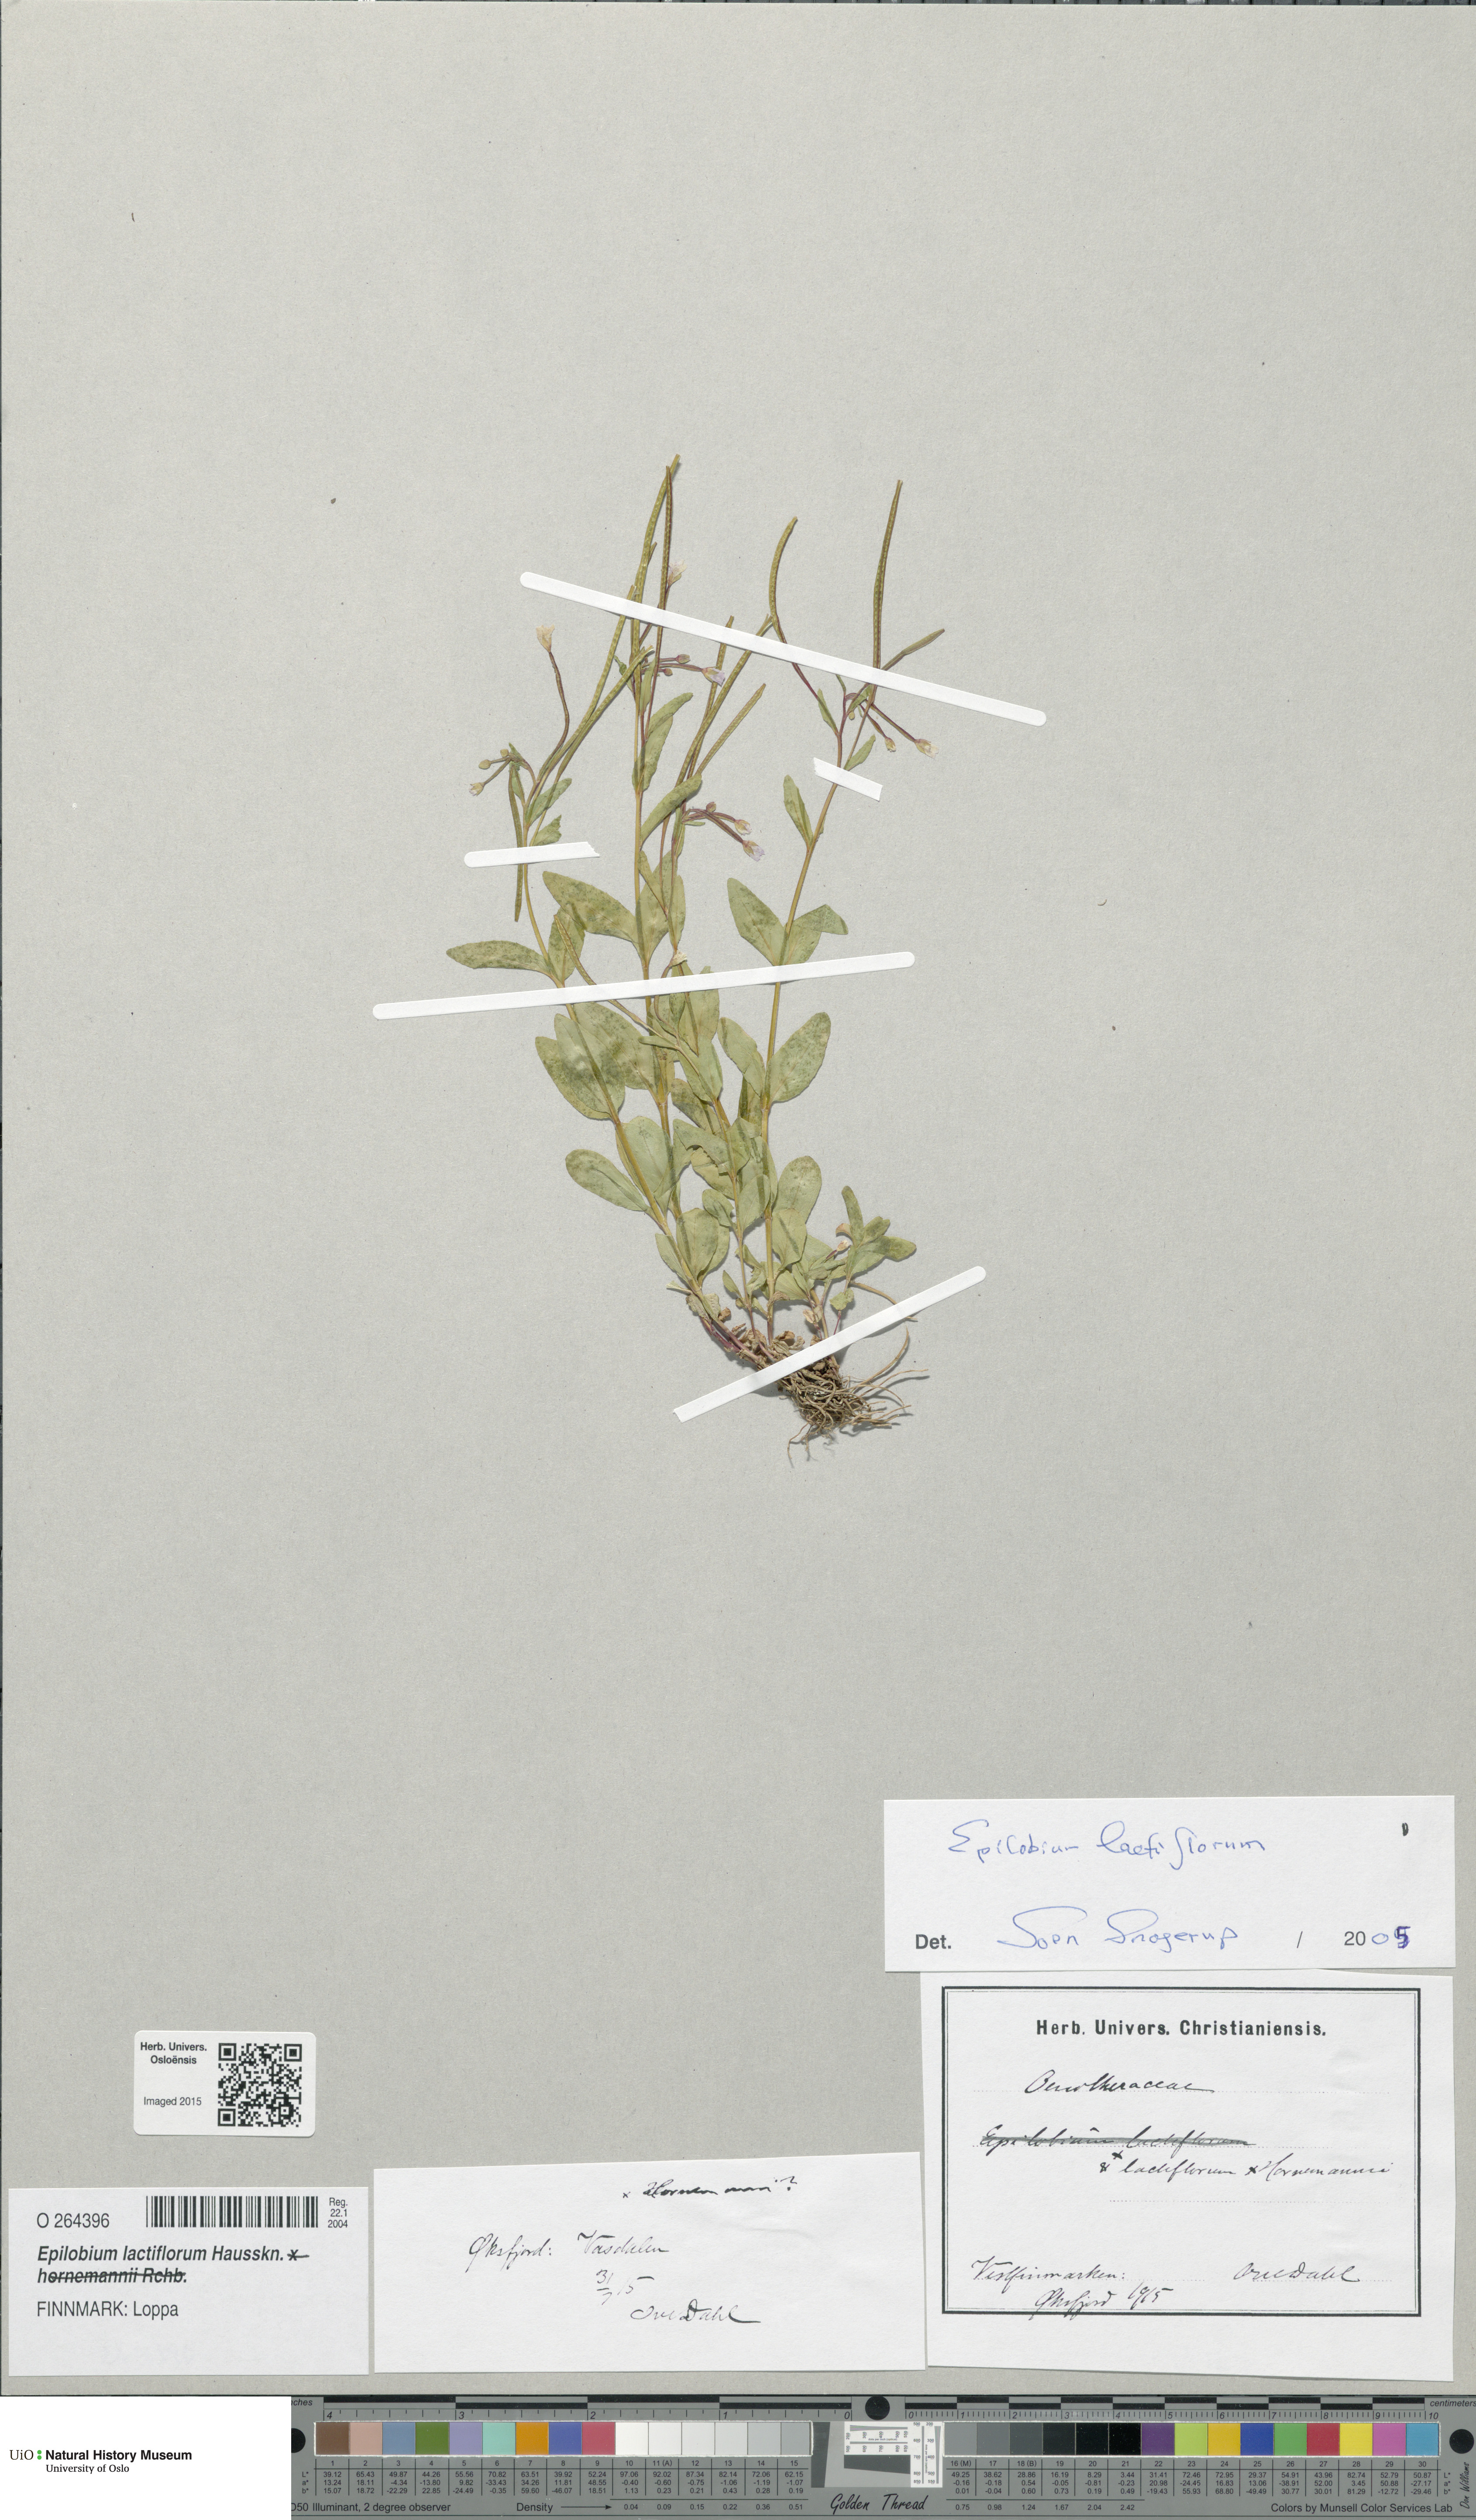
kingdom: Plantae
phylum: Tracheophyta
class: Magnoliopsida
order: Myrtales
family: Onagraceae
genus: Epilobium
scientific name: Epilobium lactiflorum
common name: Milkflower willowherb
